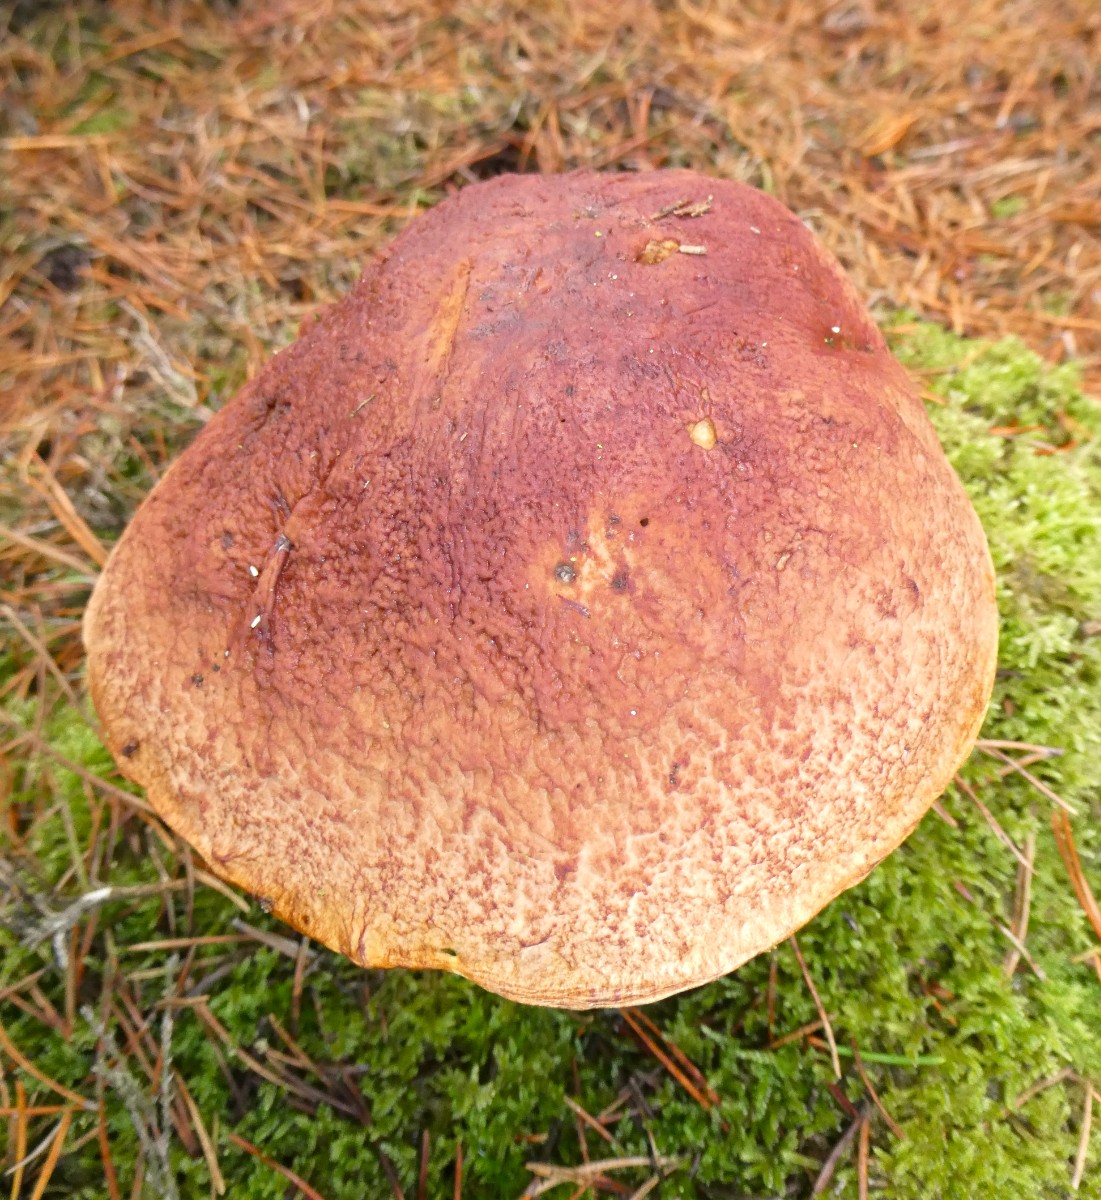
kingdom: Fungi
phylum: Basidiomycota
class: Agaricomycetes
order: Boletales
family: Boletaceae
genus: Boletus
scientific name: Boletus pinophilus
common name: rødbrun rørhat
